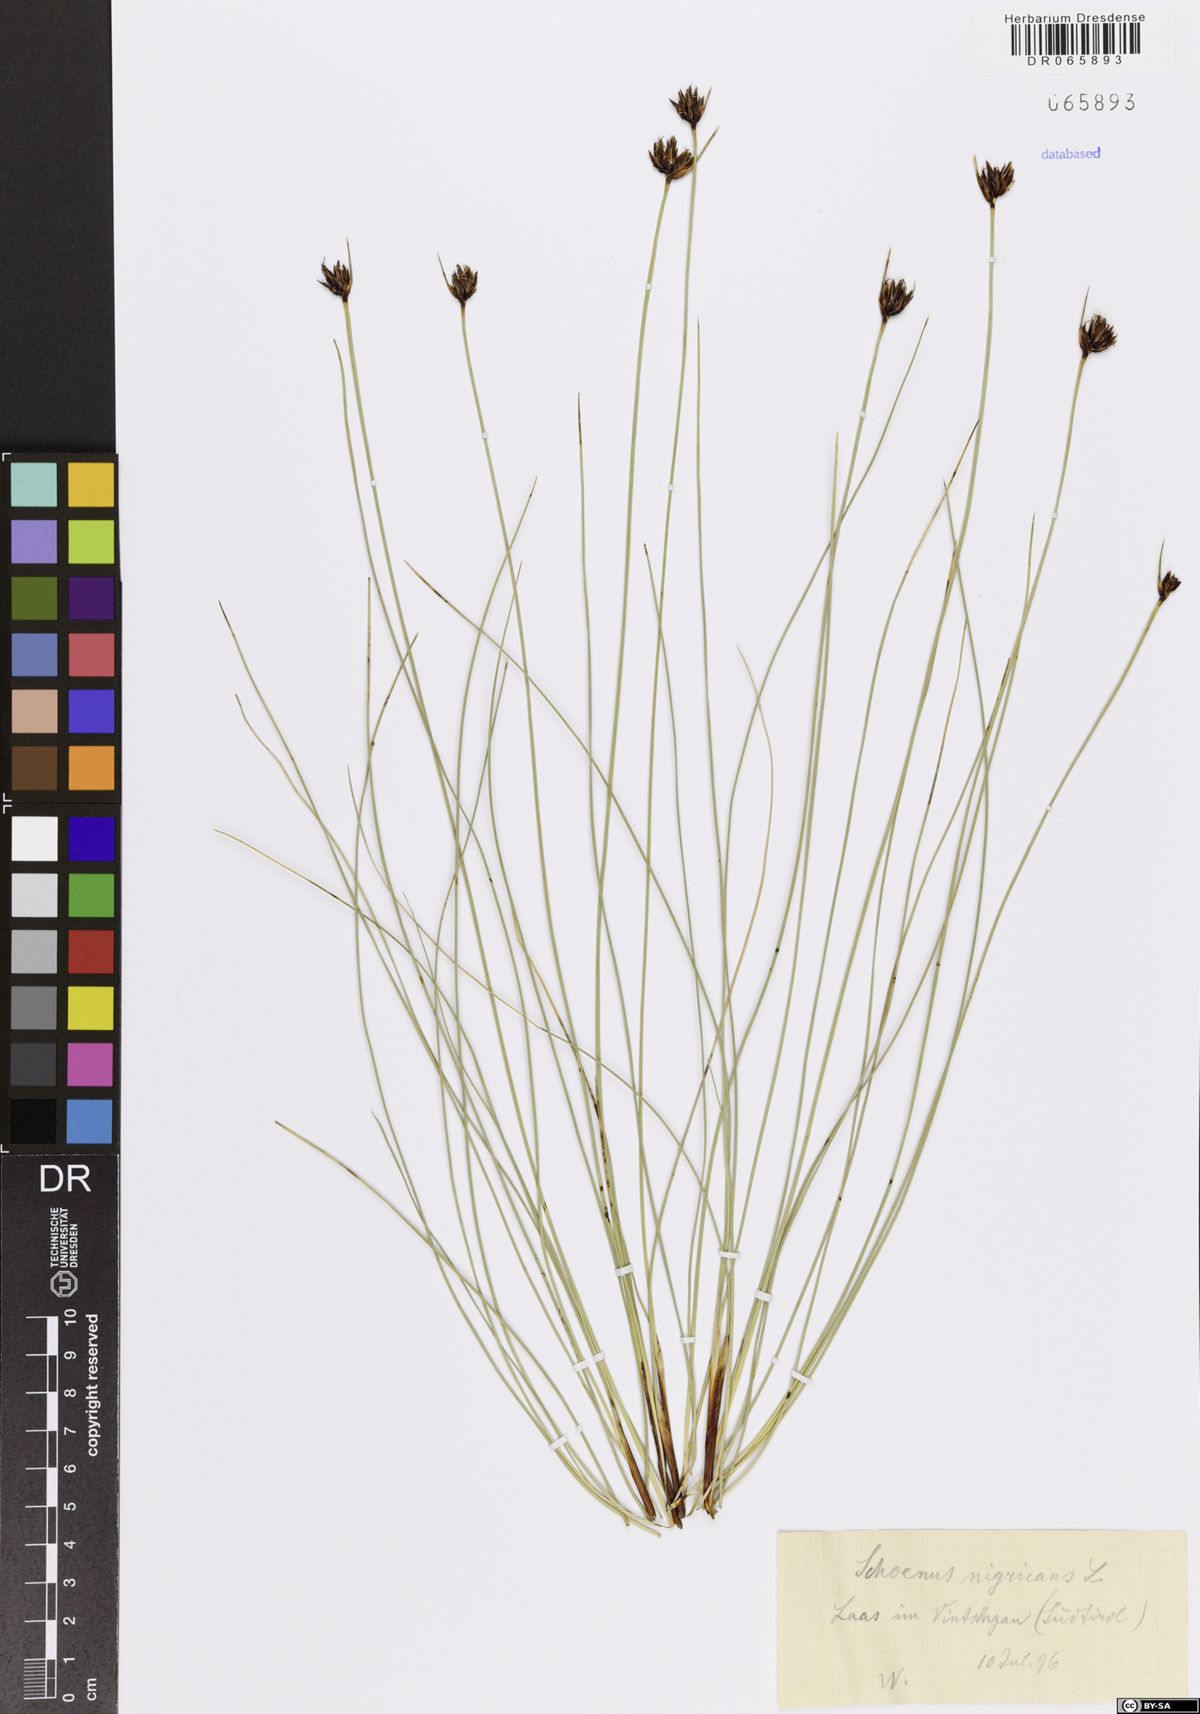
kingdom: Plantae
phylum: Tracheophyta
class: Liliopsida
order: Poales
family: Cyperaceae
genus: Schoenus
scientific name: Schoenus nigricans
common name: Black bog-rush
